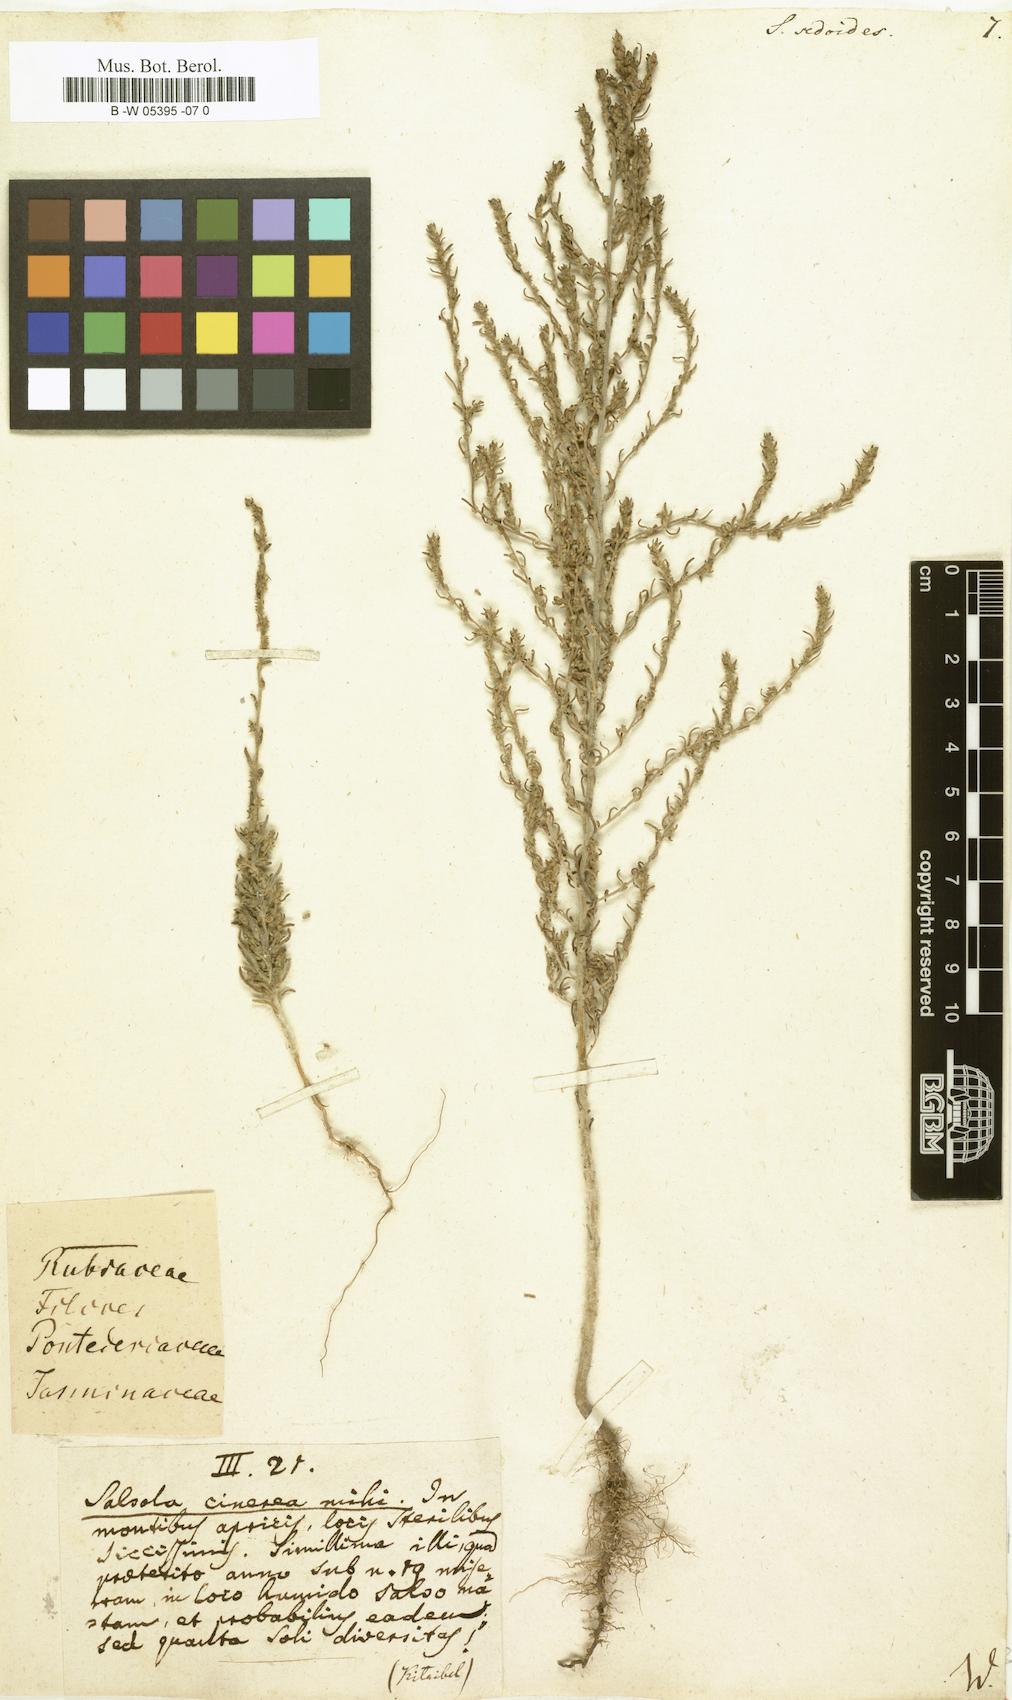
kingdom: Plantae
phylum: Tracheophyta
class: Magnoliopsida
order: Caryophyllales
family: Amaranthaceae
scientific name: Amaranthaceae
